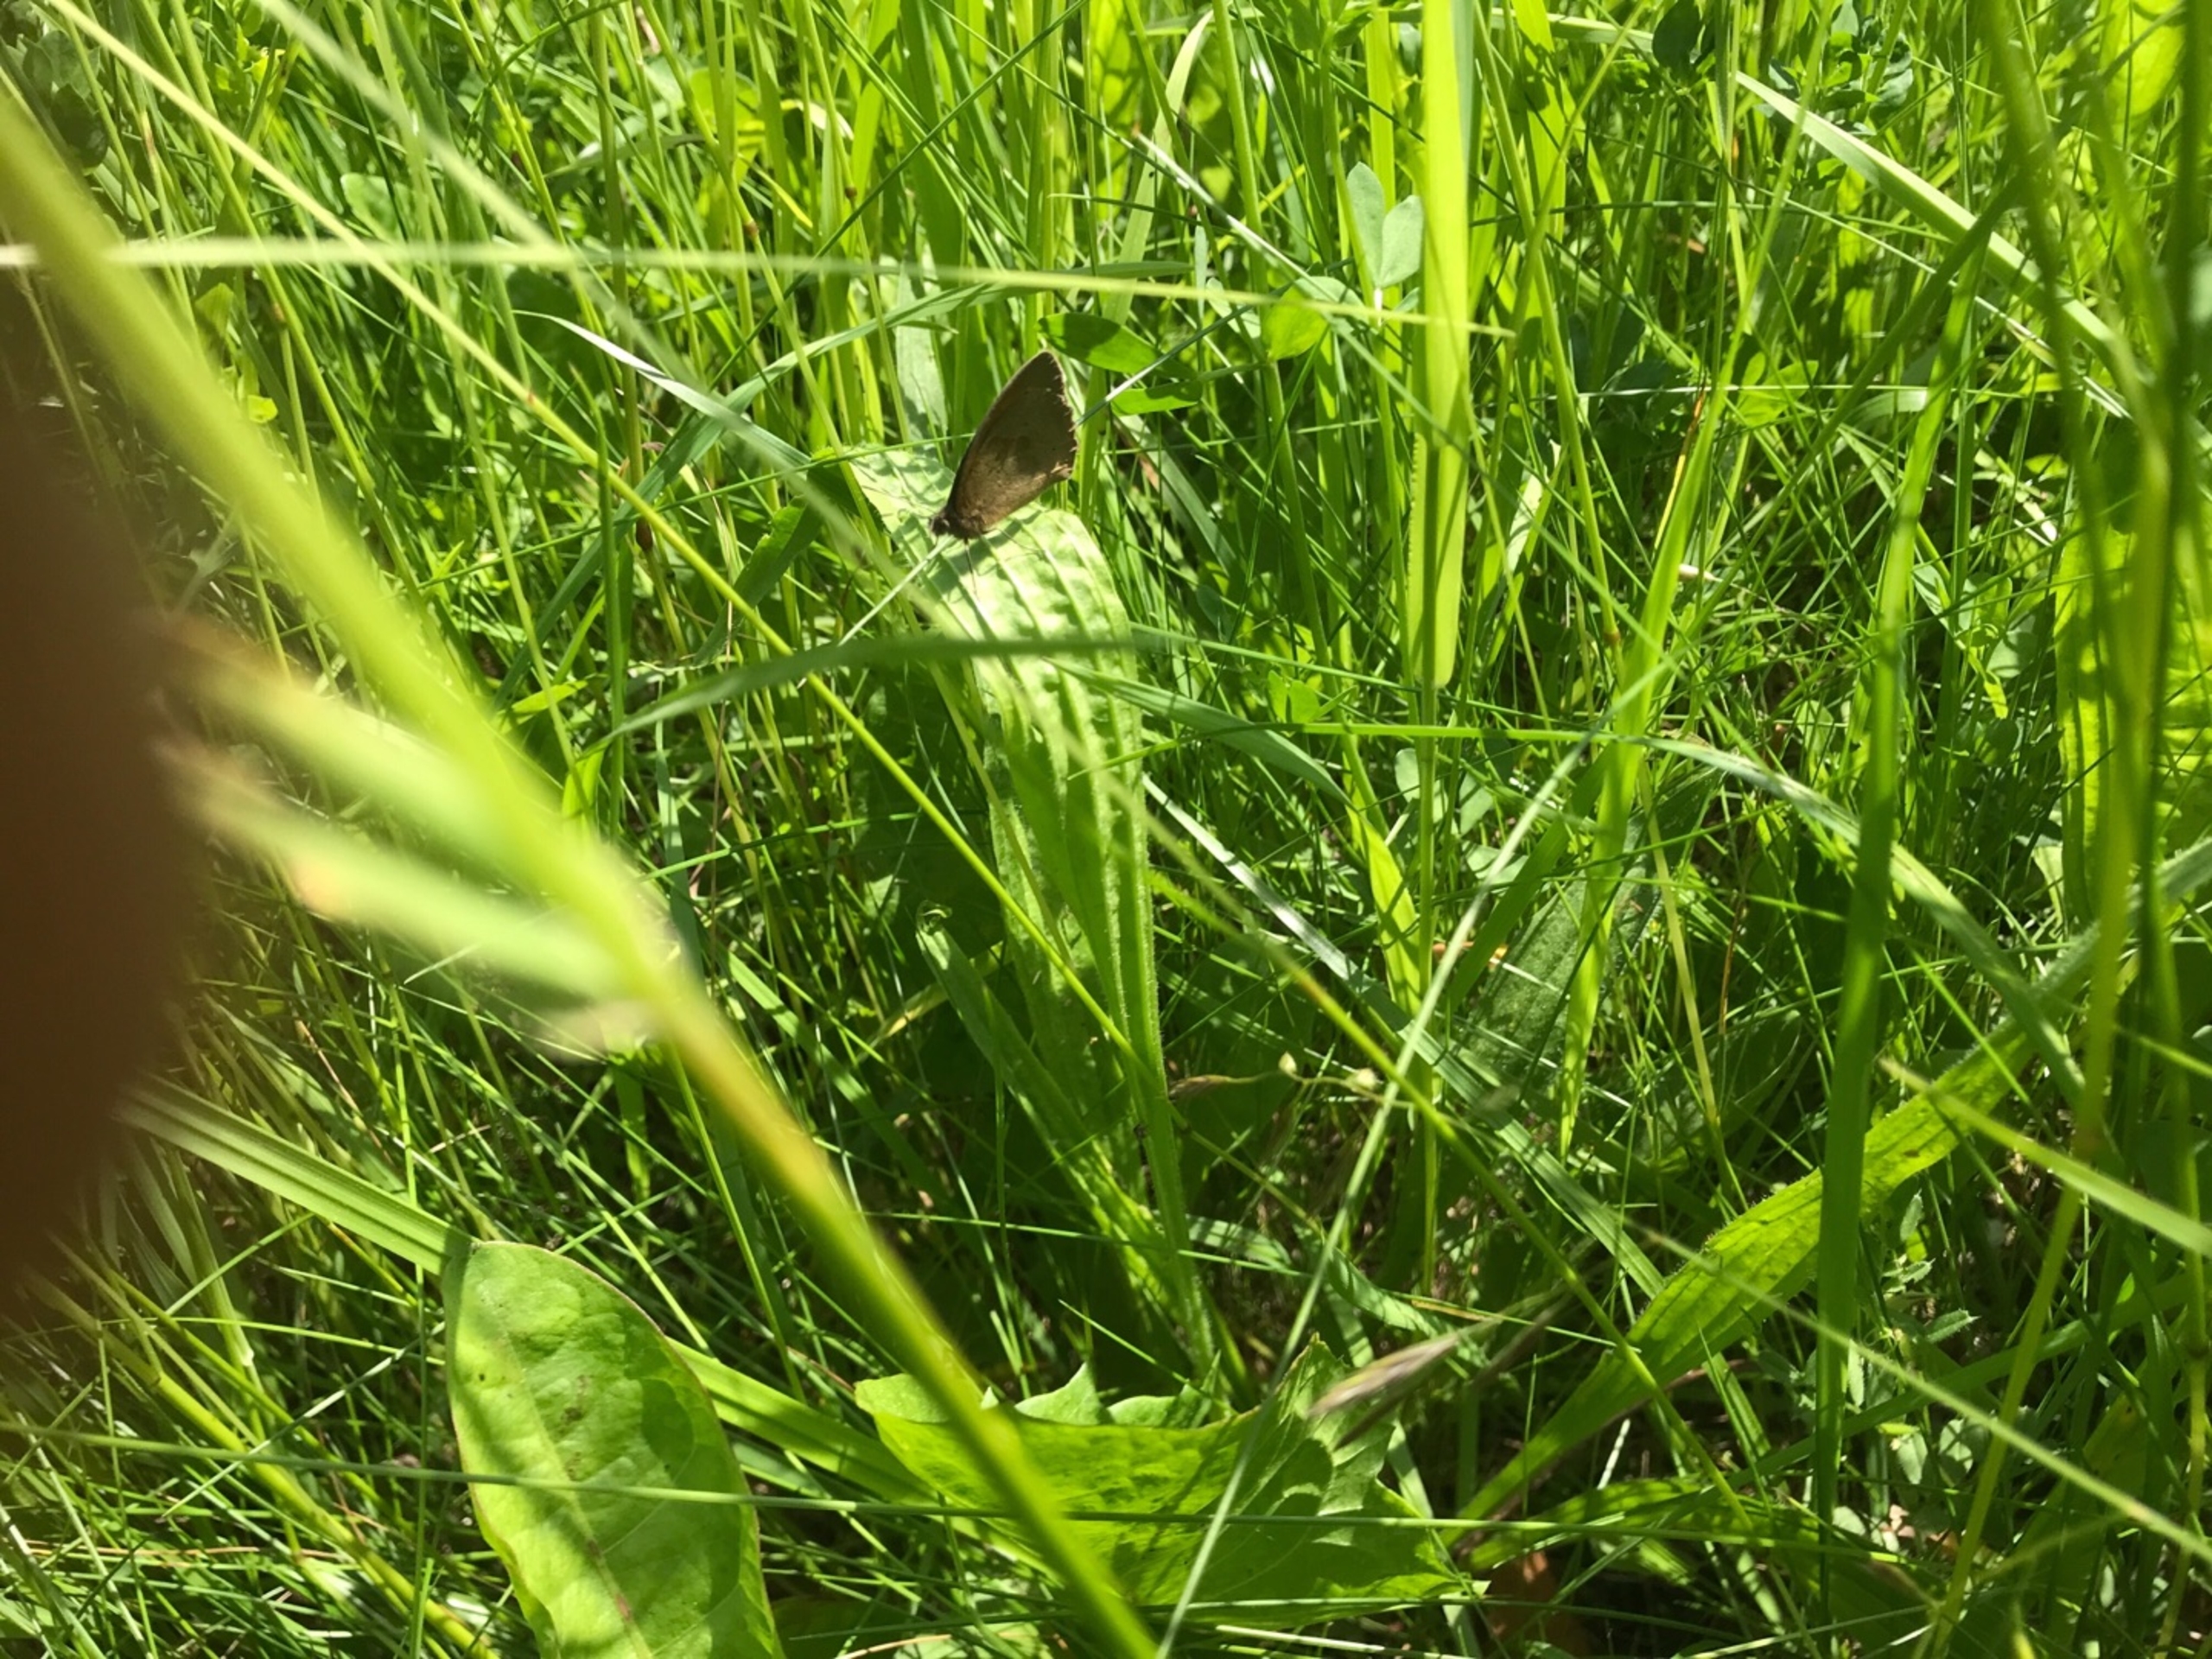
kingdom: Animalia
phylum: Arthropoda
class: Insecta
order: Lepidoptera
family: Nymphalidae
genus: Maniola
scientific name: Maniola jurtina
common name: Græsrandøje
